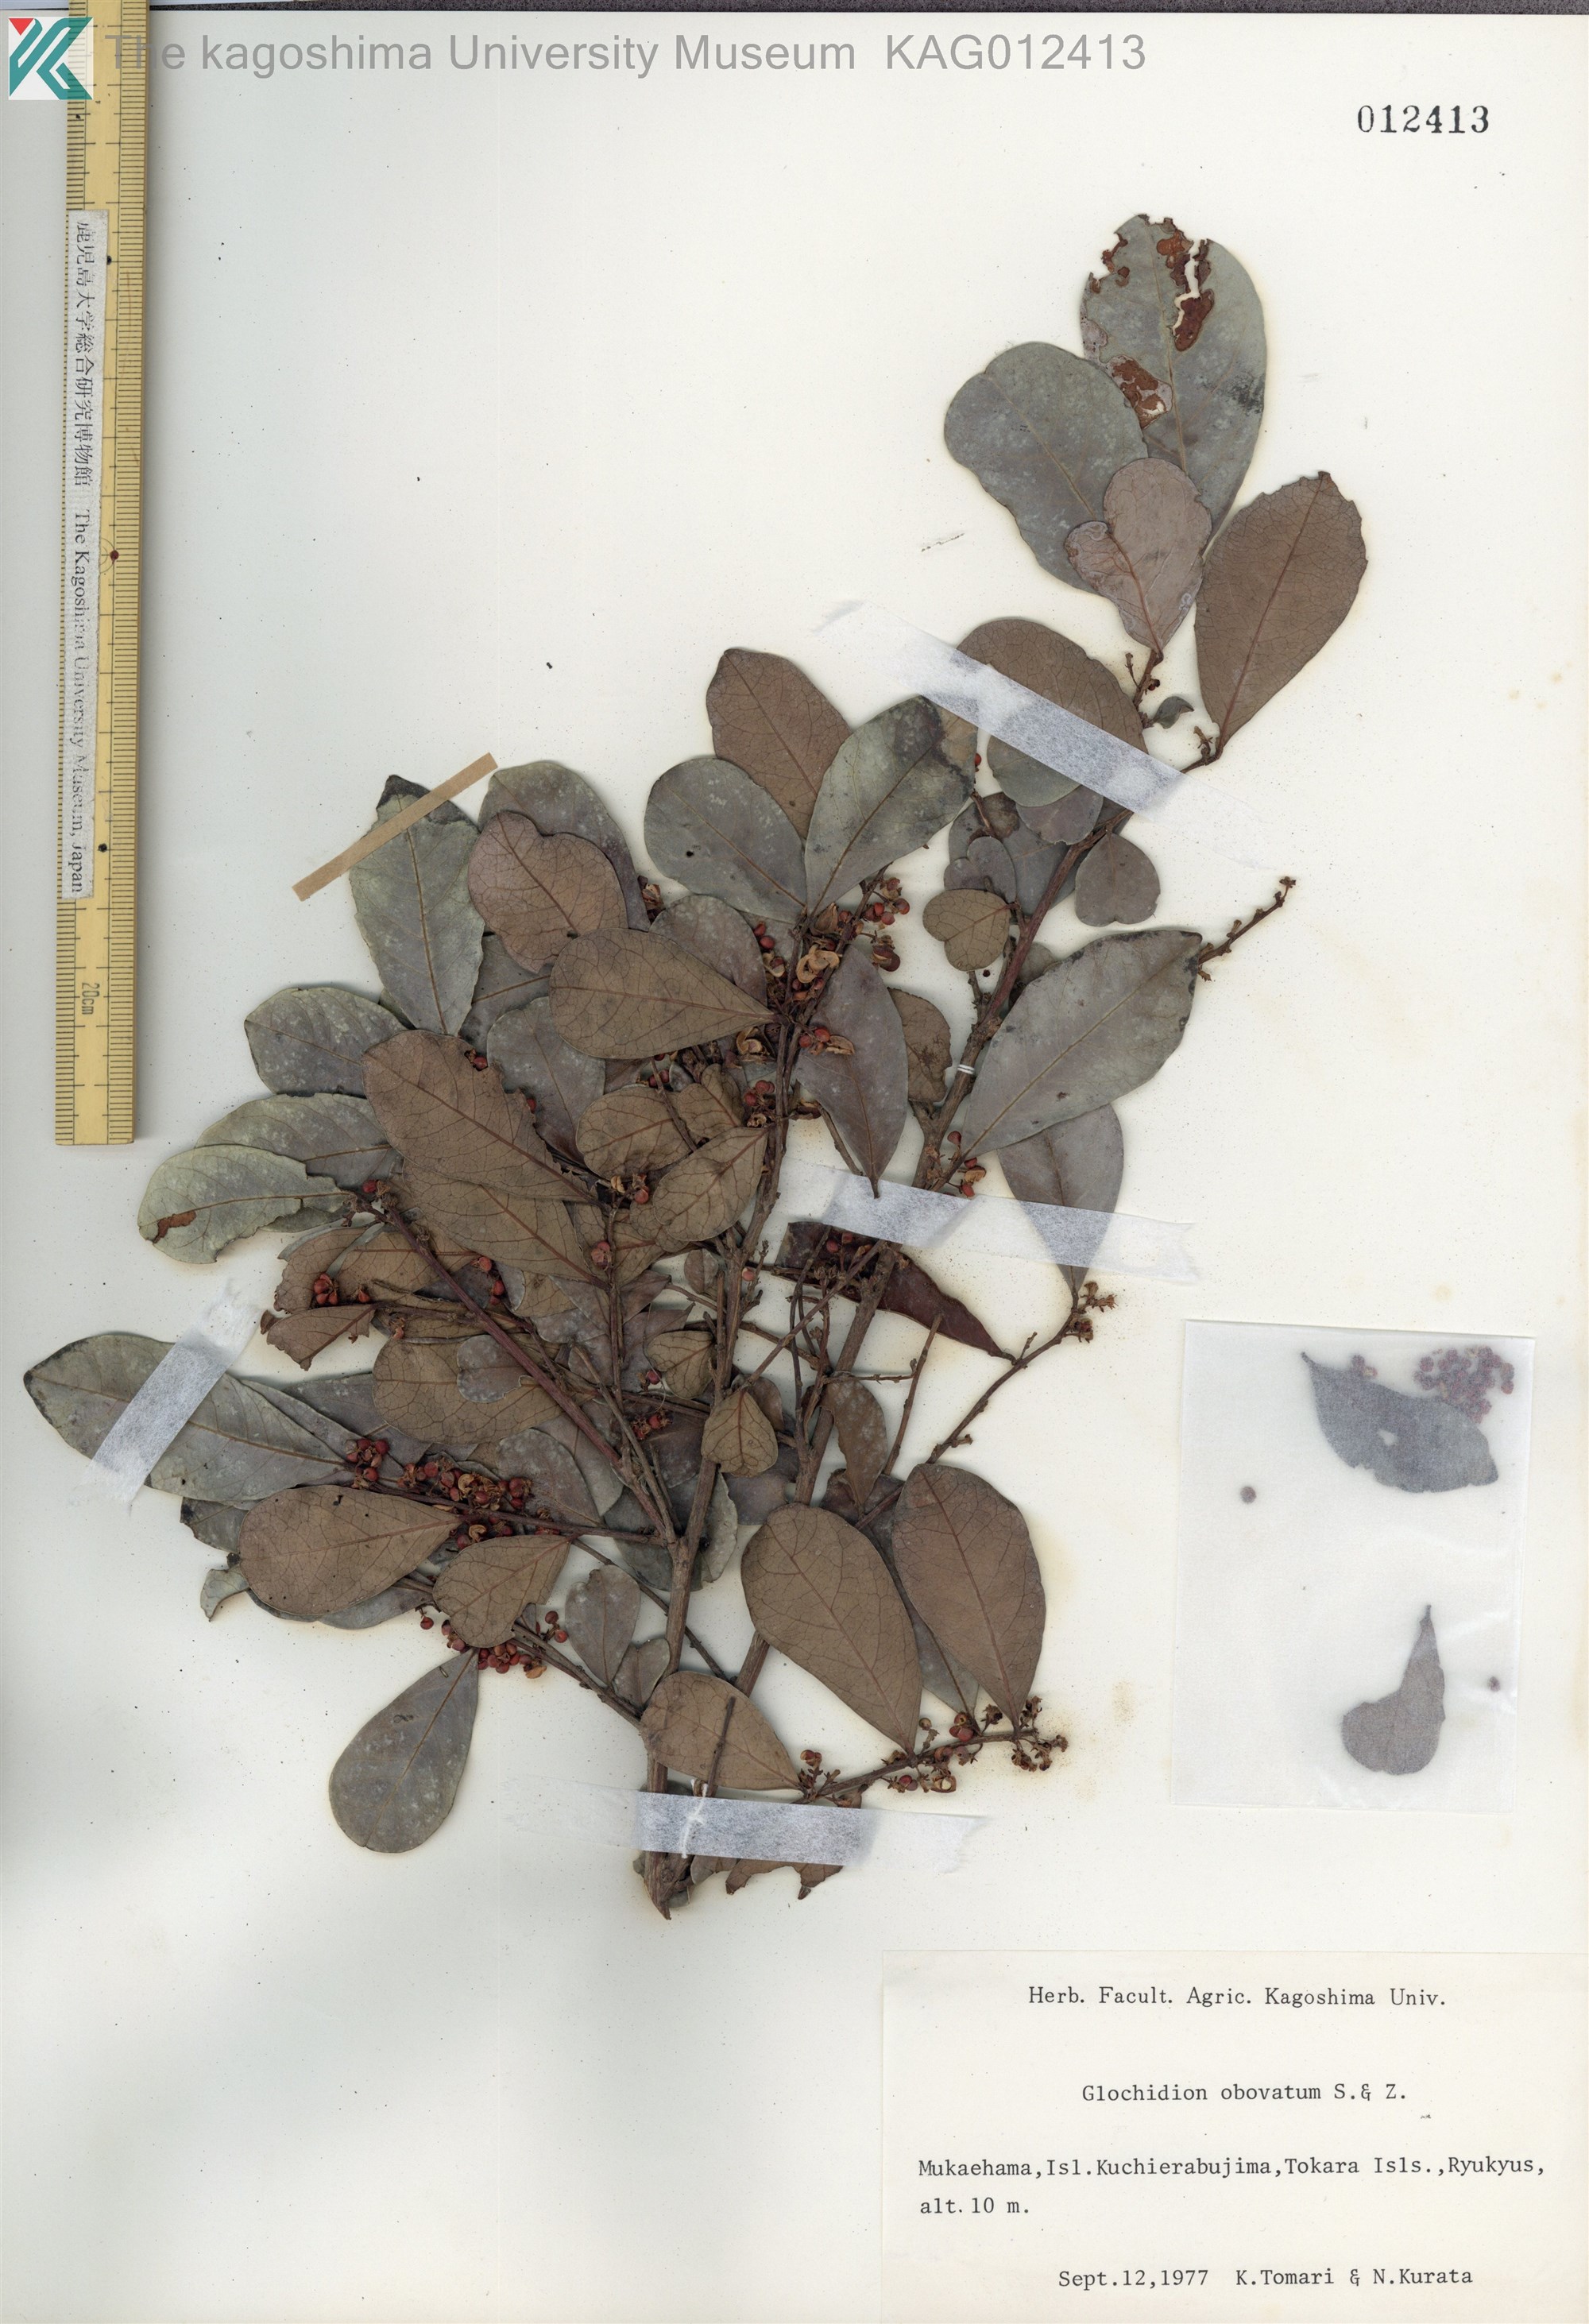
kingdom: Plantae
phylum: Tracheophyta
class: Magnoliopsida
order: Malpighiales
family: Phyllanthaceae
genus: Glochidion
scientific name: Glochidion obovatum
